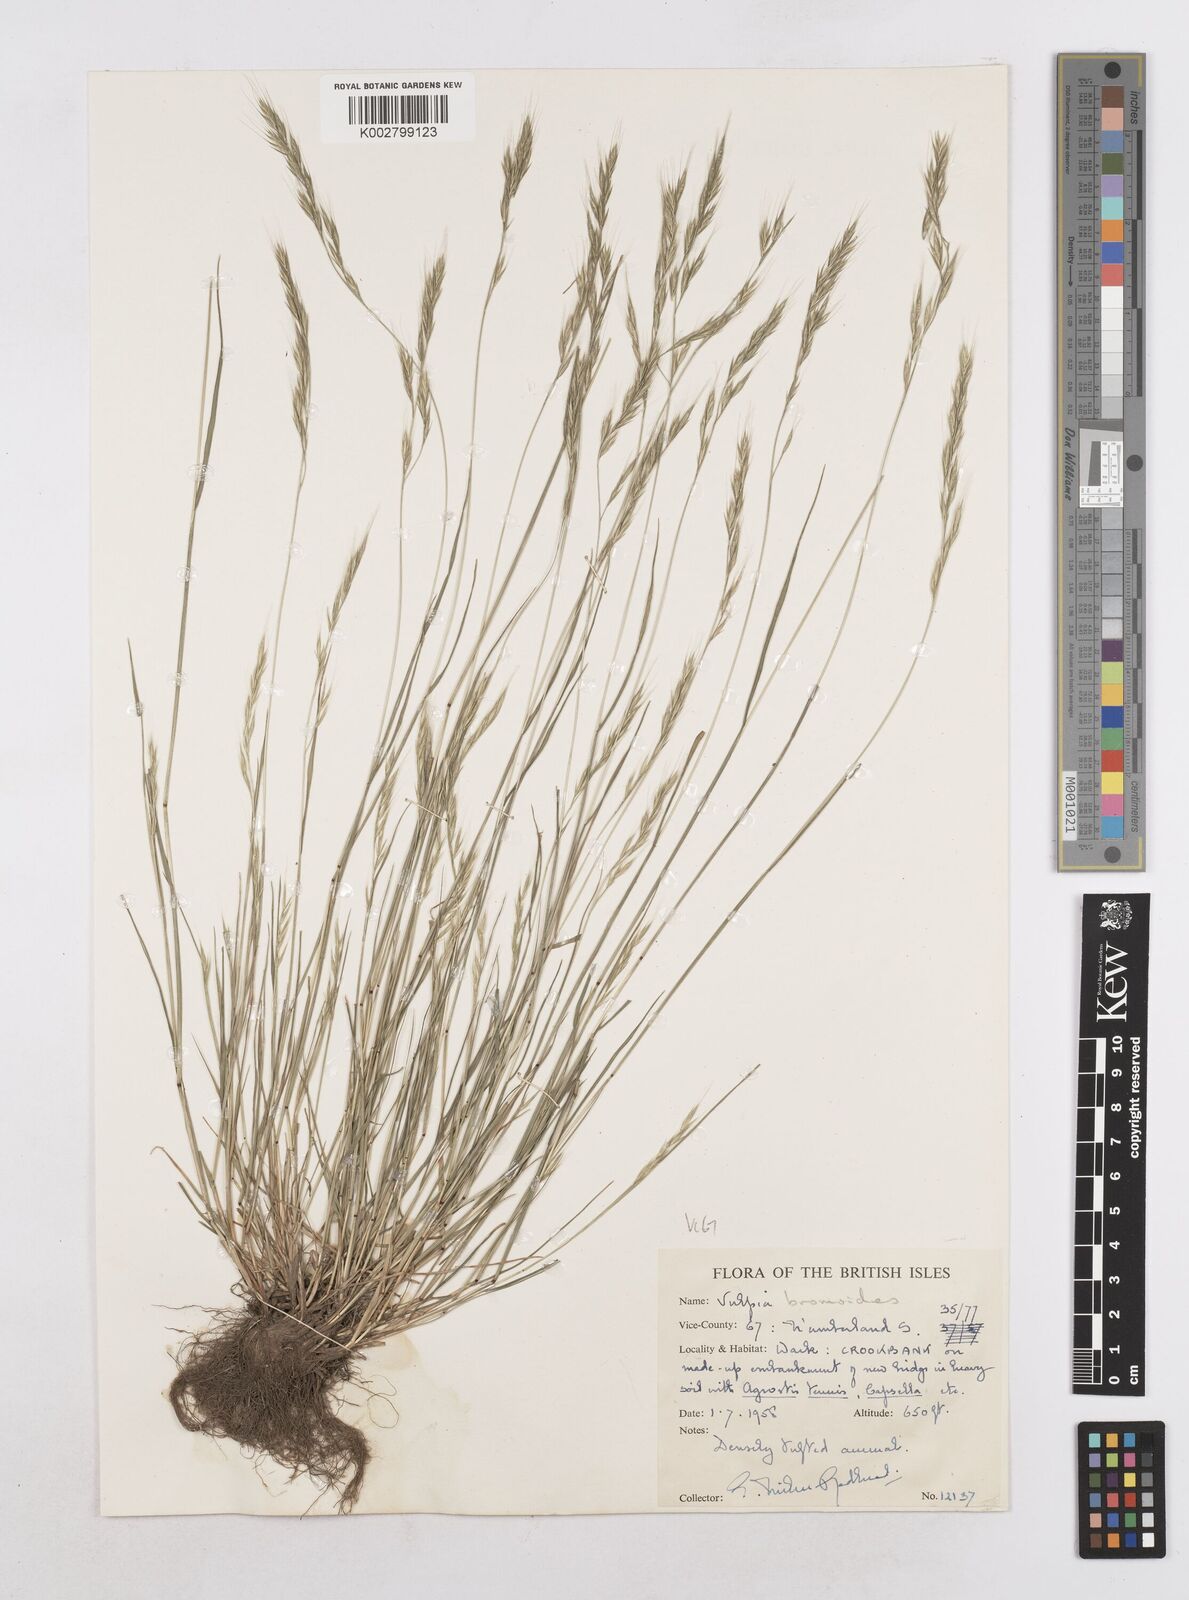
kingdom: Plantae
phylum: Tracheophyta
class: Liliopsida
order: Poales
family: Poaceae
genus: Festuca
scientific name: Festuca bromoides
